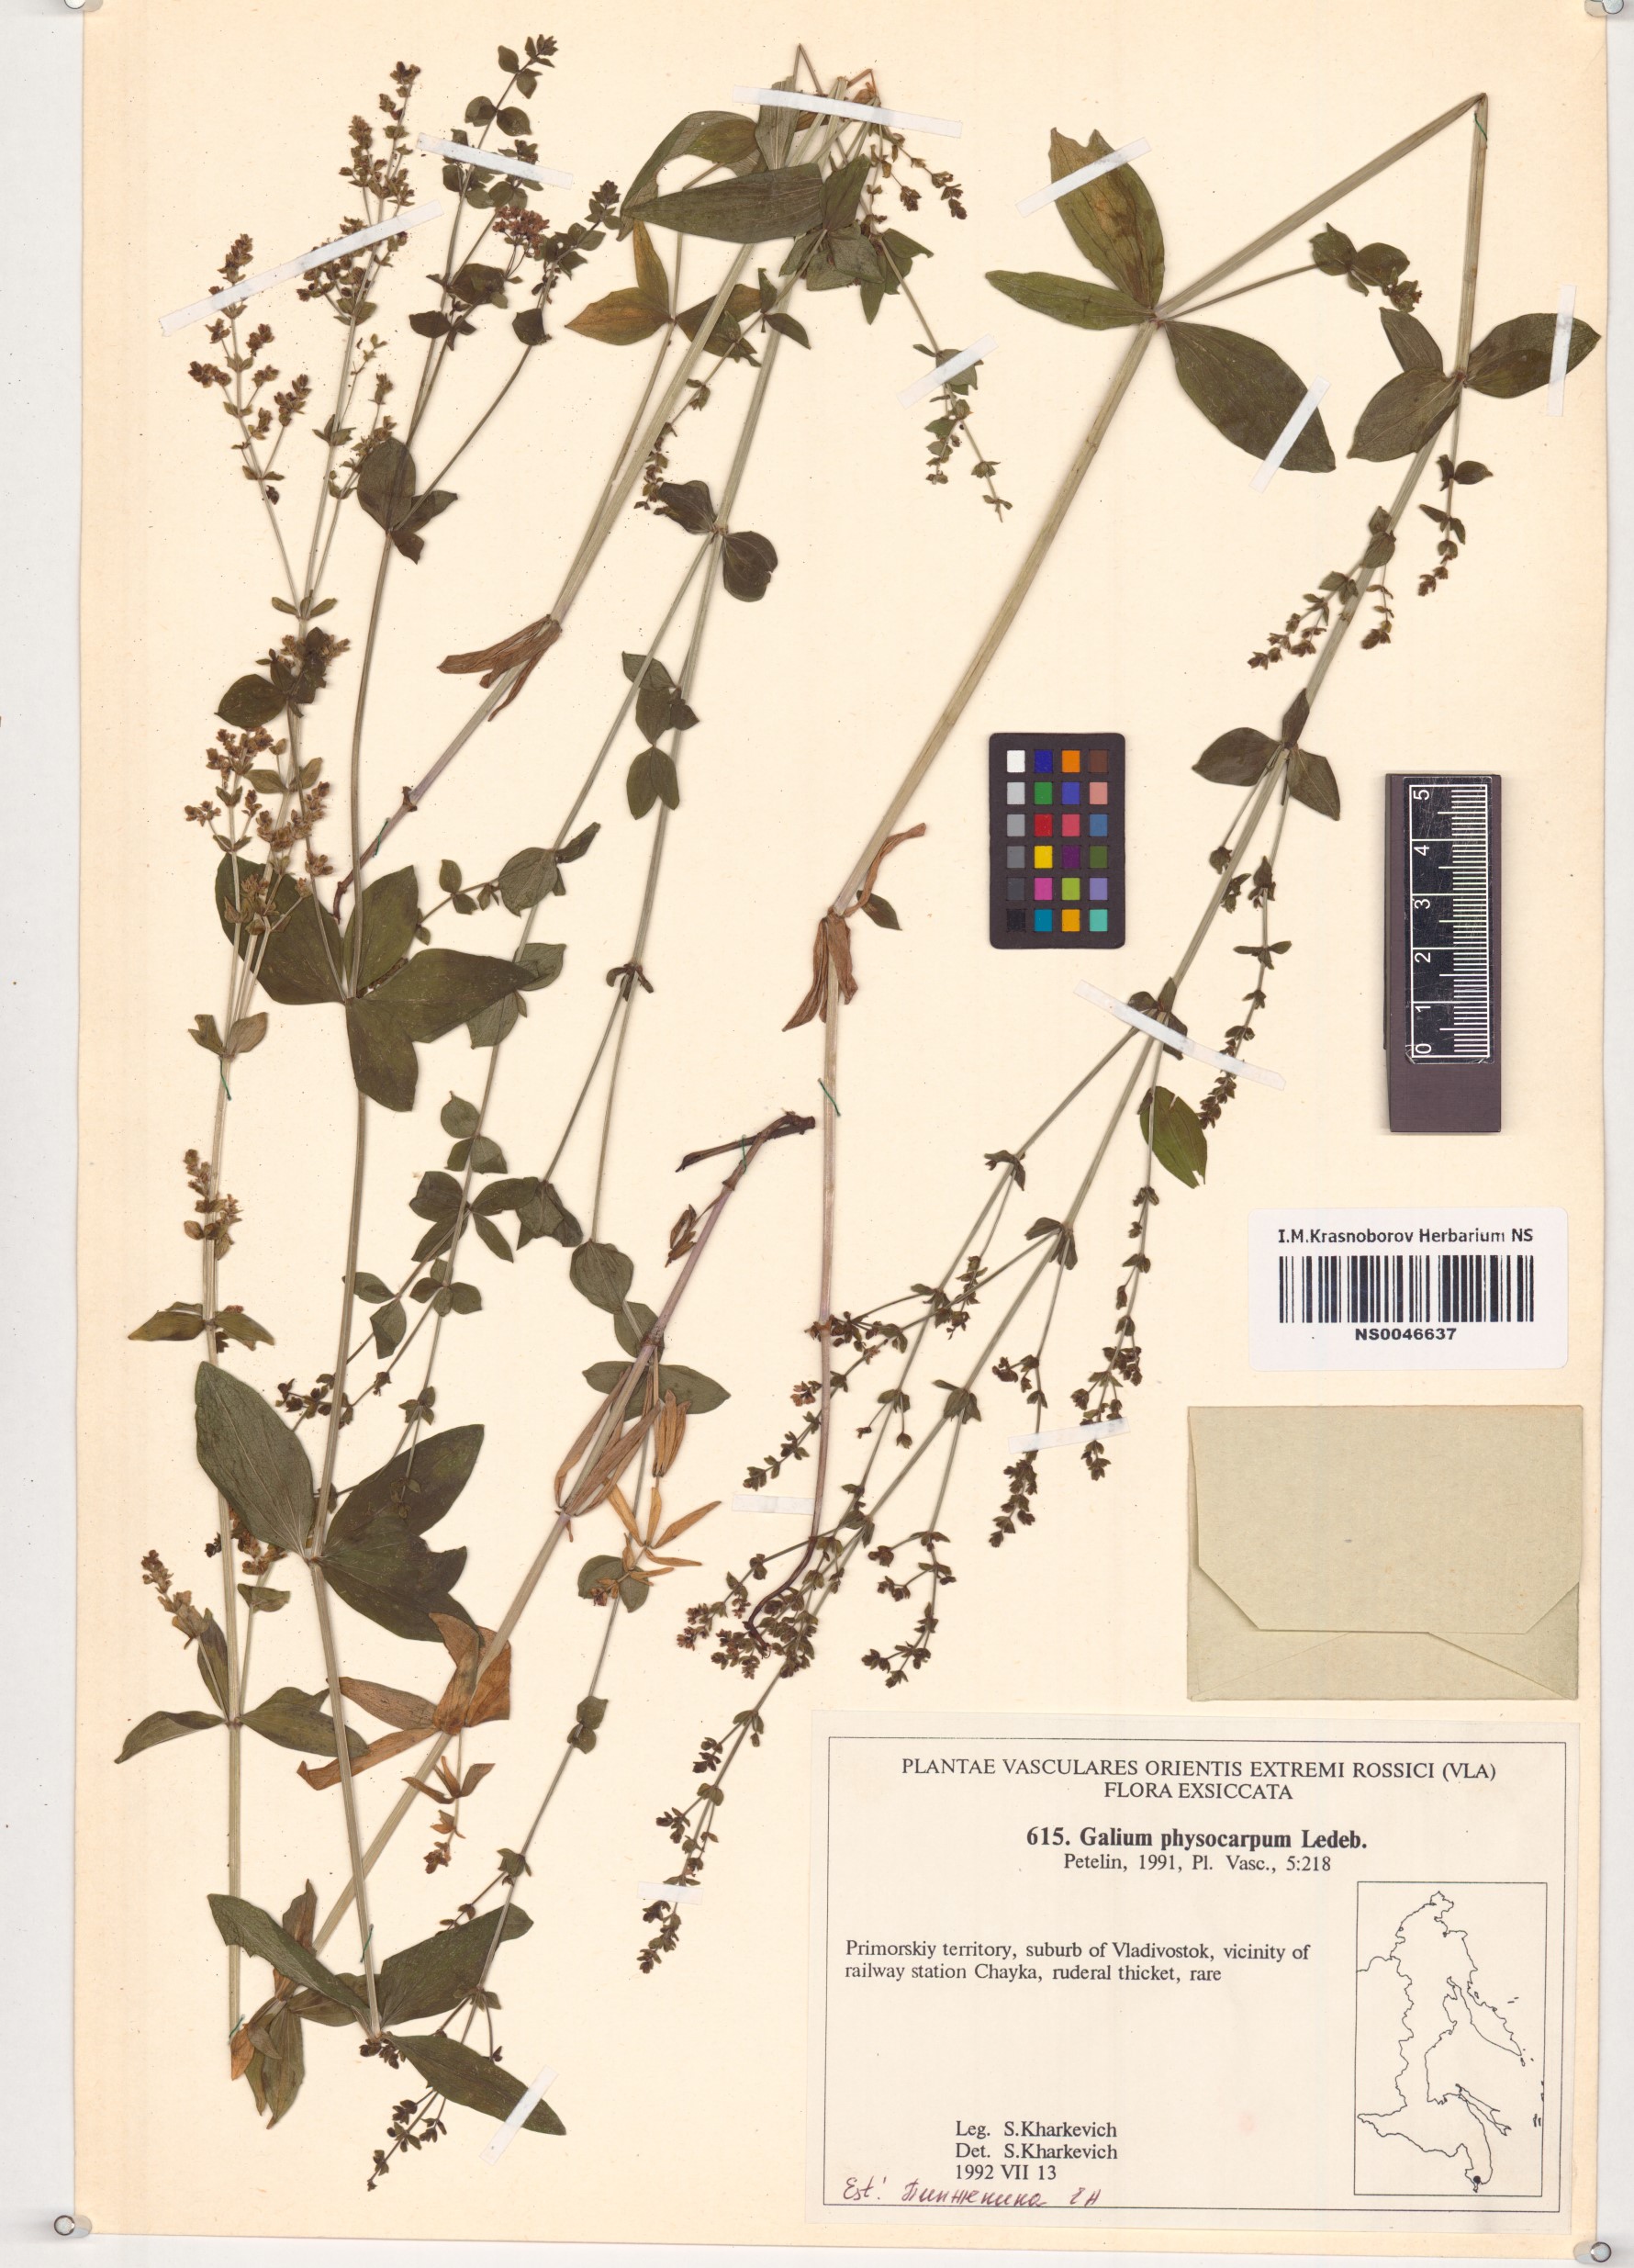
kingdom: Plantae
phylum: Tracheophyta
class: Magnoliopsida
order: Gentianales
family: Rubiaceae
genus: Galium
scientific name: Galium rubioides
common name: European bedstraw
